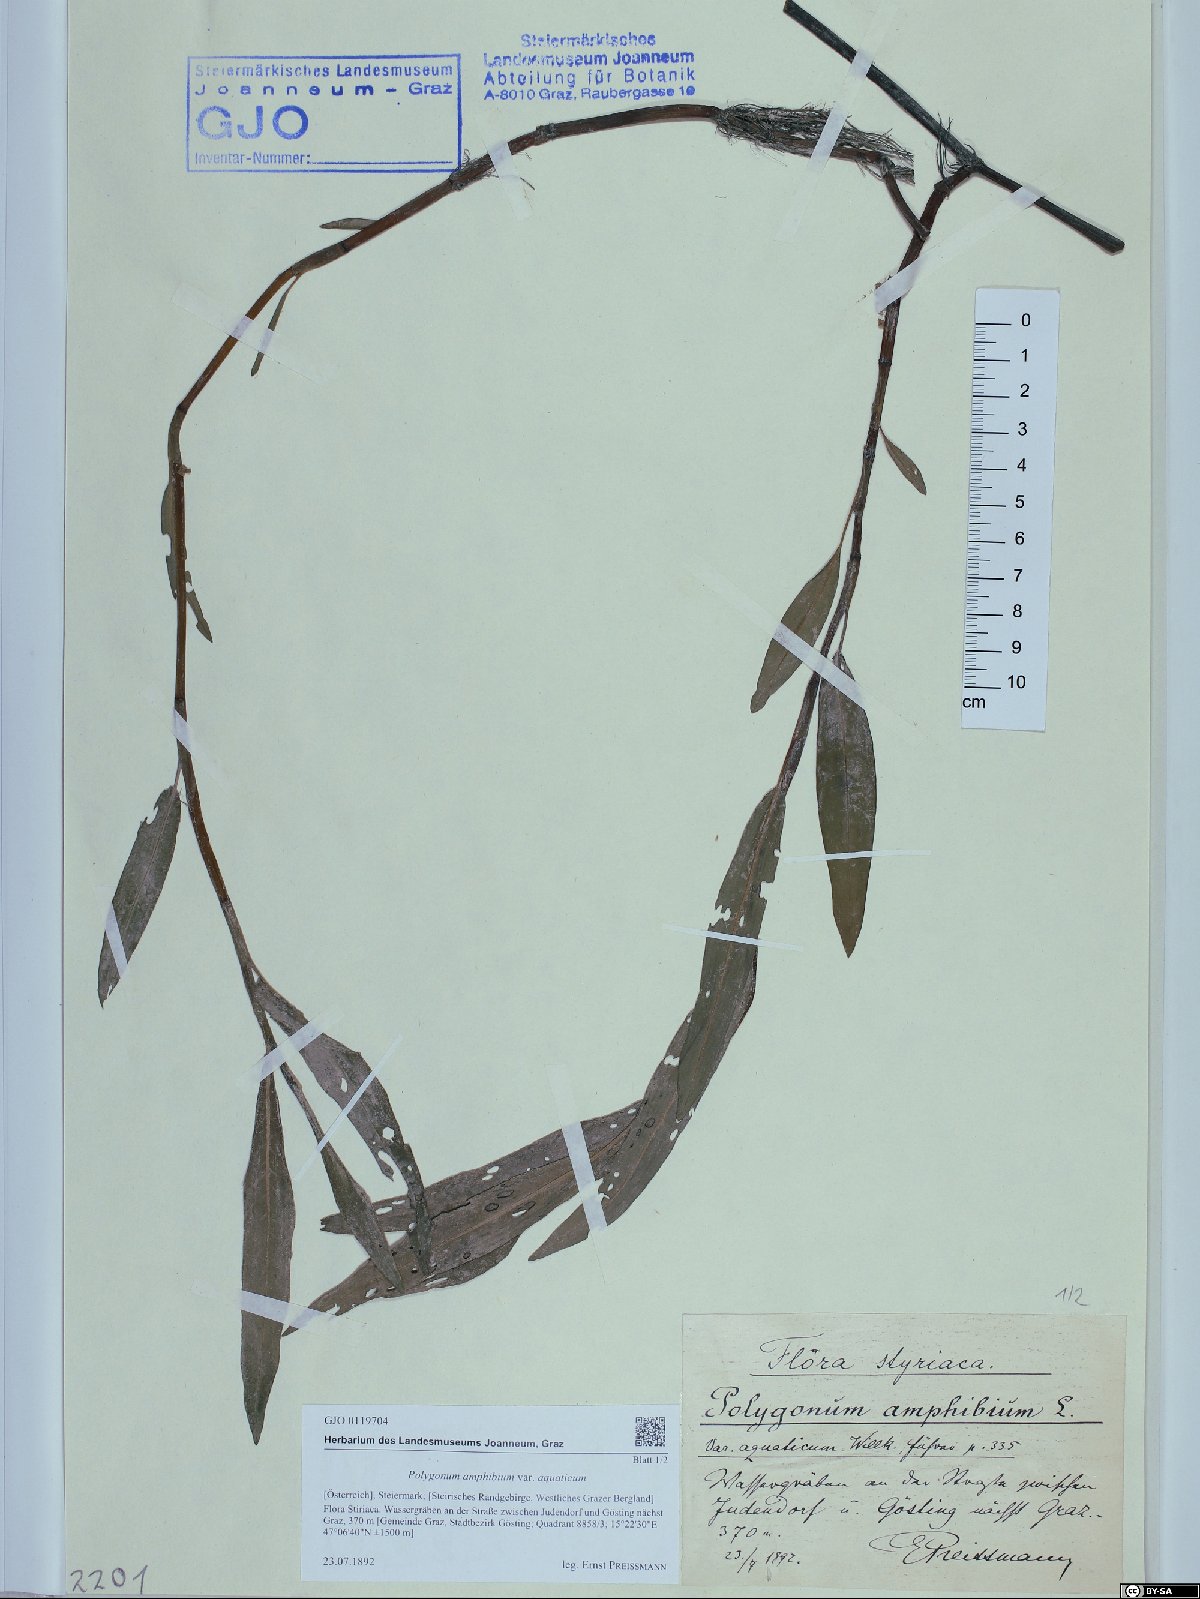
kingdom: Plantae
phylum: Tracheophyta
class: Magnoliopsida
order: Caryophyllales
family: Polygonaceae
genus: Persicaria
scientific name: Persicaria amphibia
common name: Amphibious bistort
